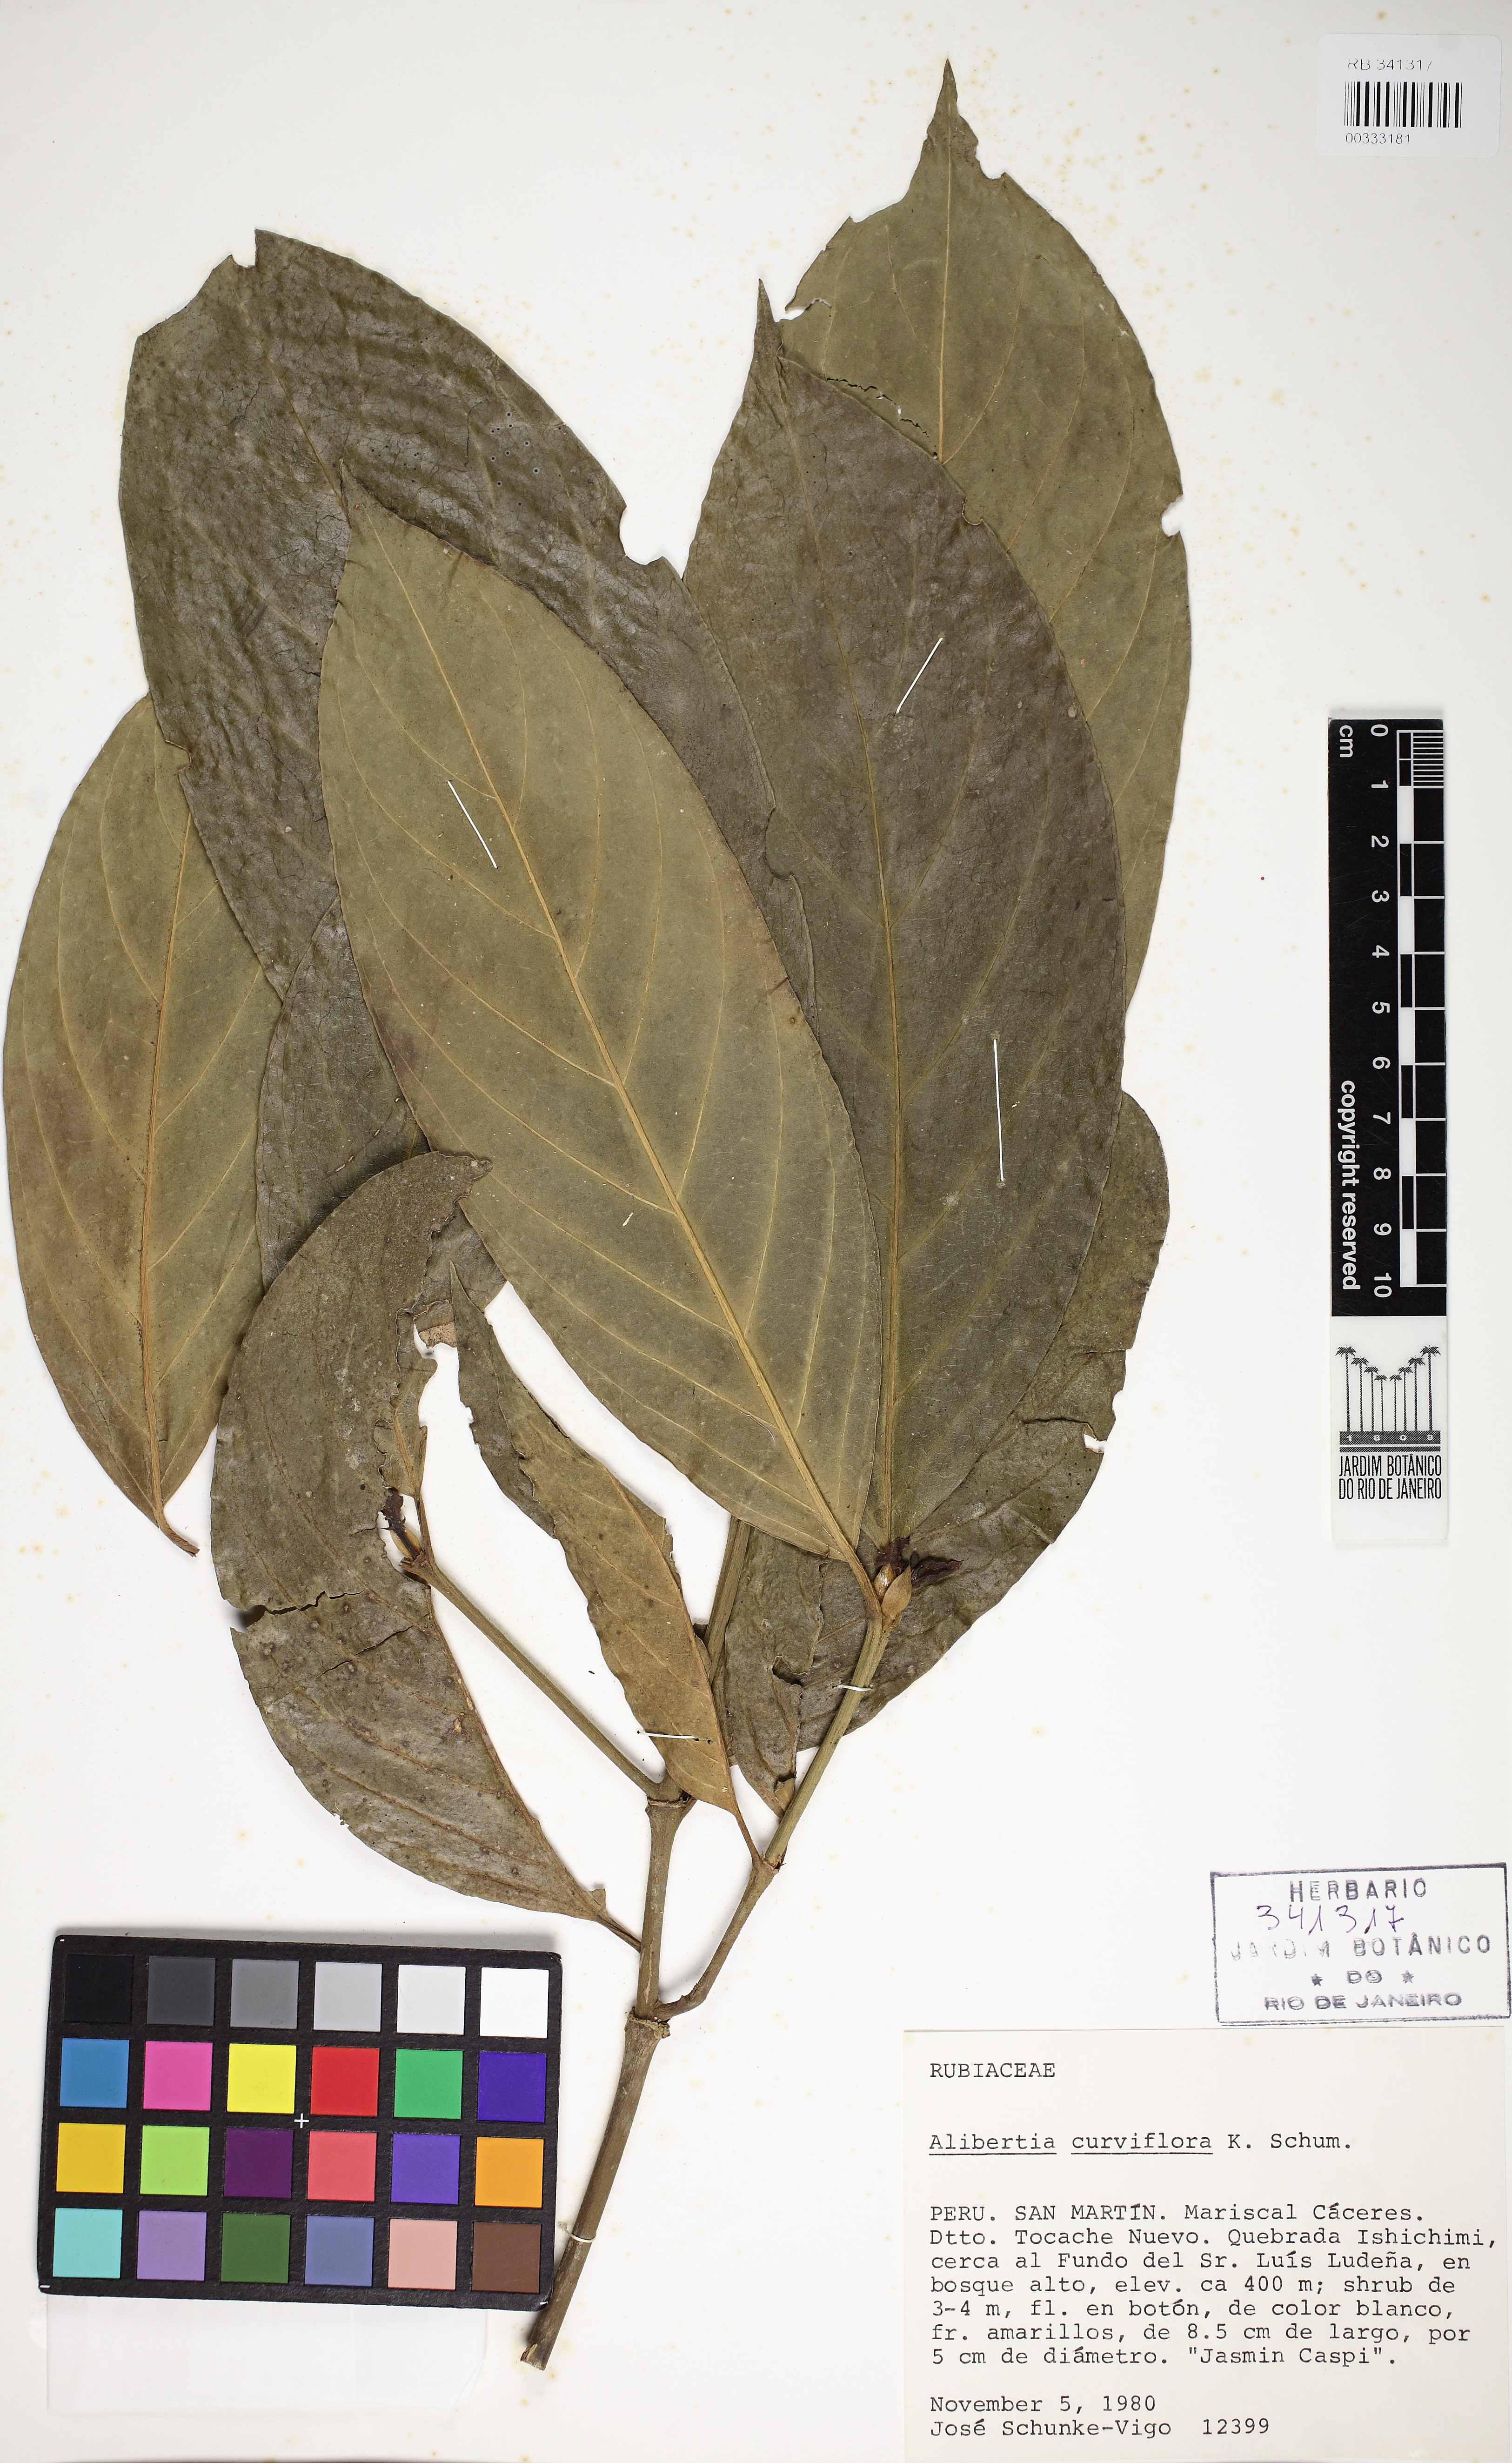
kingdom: Plantae
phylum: Tracheophyta
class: Magnoliopsida
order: Gentianales
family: Rubiaceae
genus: Alibertia
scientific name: Alibertia curviflora
